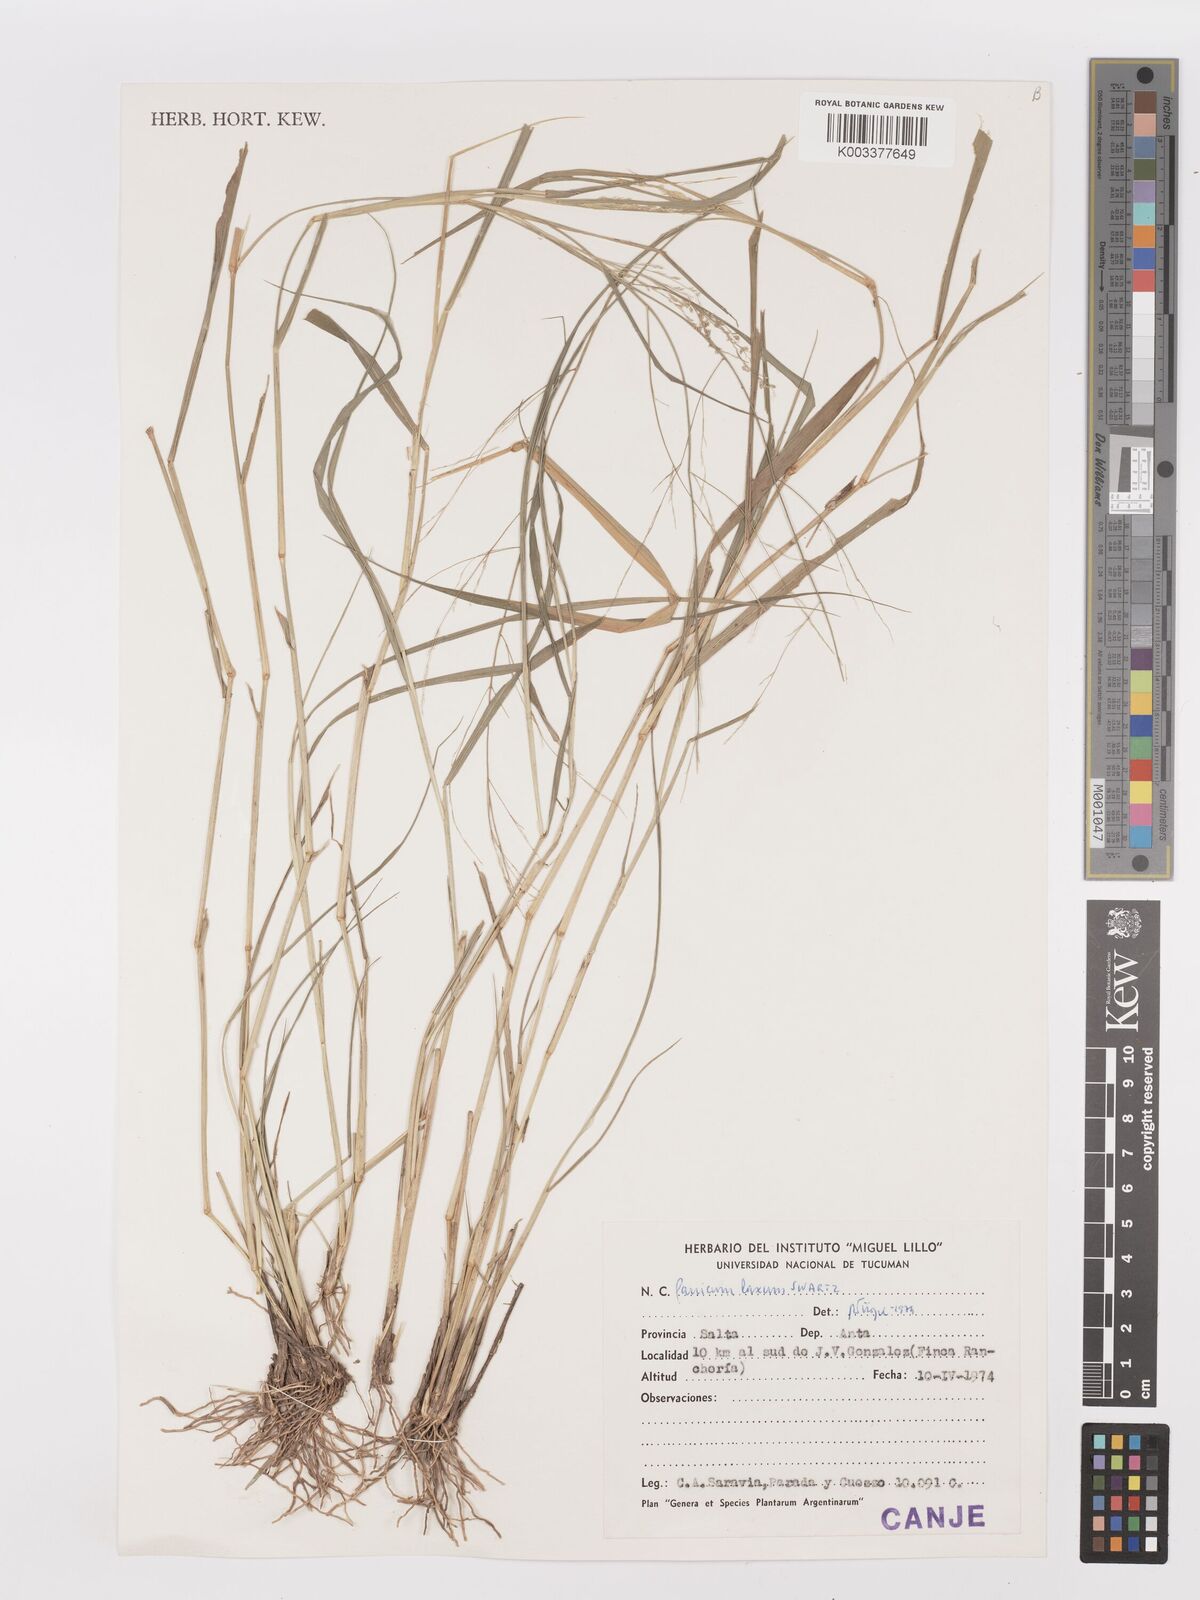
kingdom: Plantae
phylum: Tracheophyta
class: Liliopsida
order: Poales
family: Poaceae
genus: Steinchisma
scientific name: Steinchisma laxum
